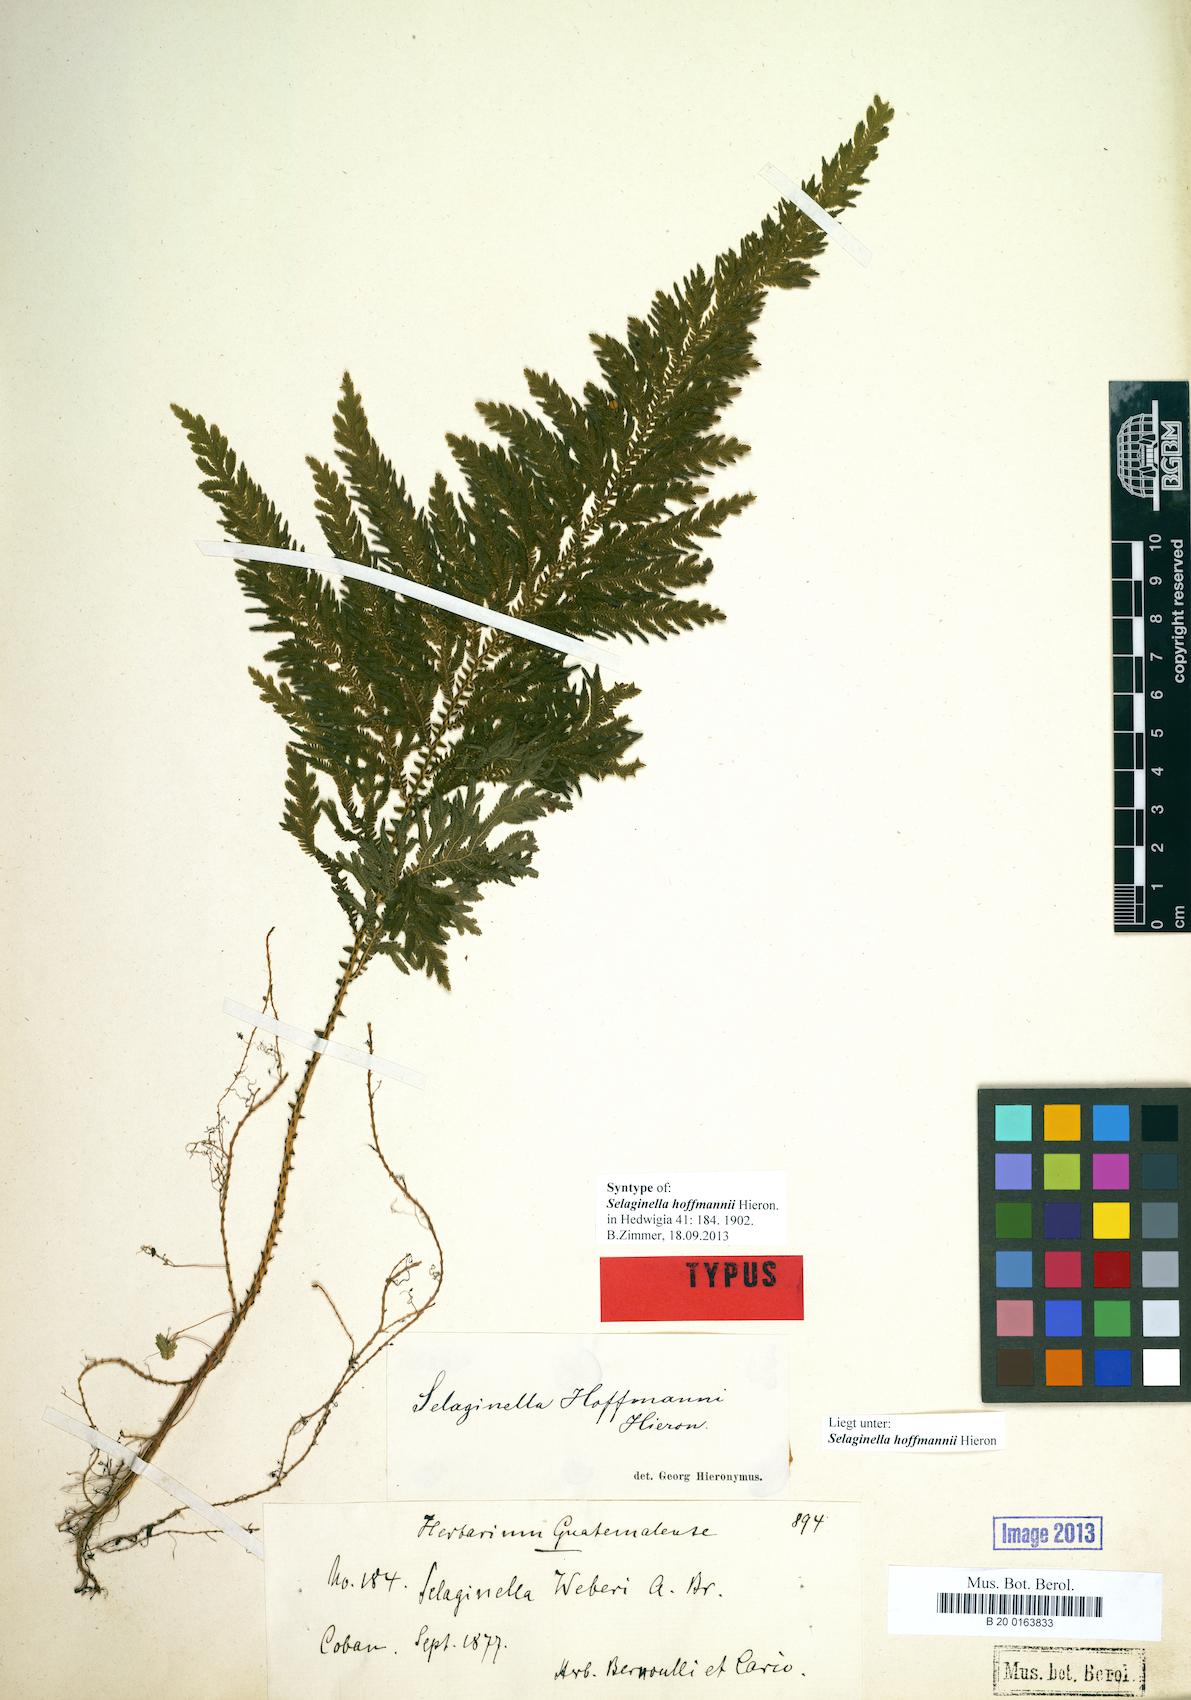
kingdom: Plantae
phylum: Tracheophyta
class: Lycopodiopsida
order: Selaginellales
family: Selaginellaceae
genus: Selaginella
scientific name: Selaginella hoffmannii
